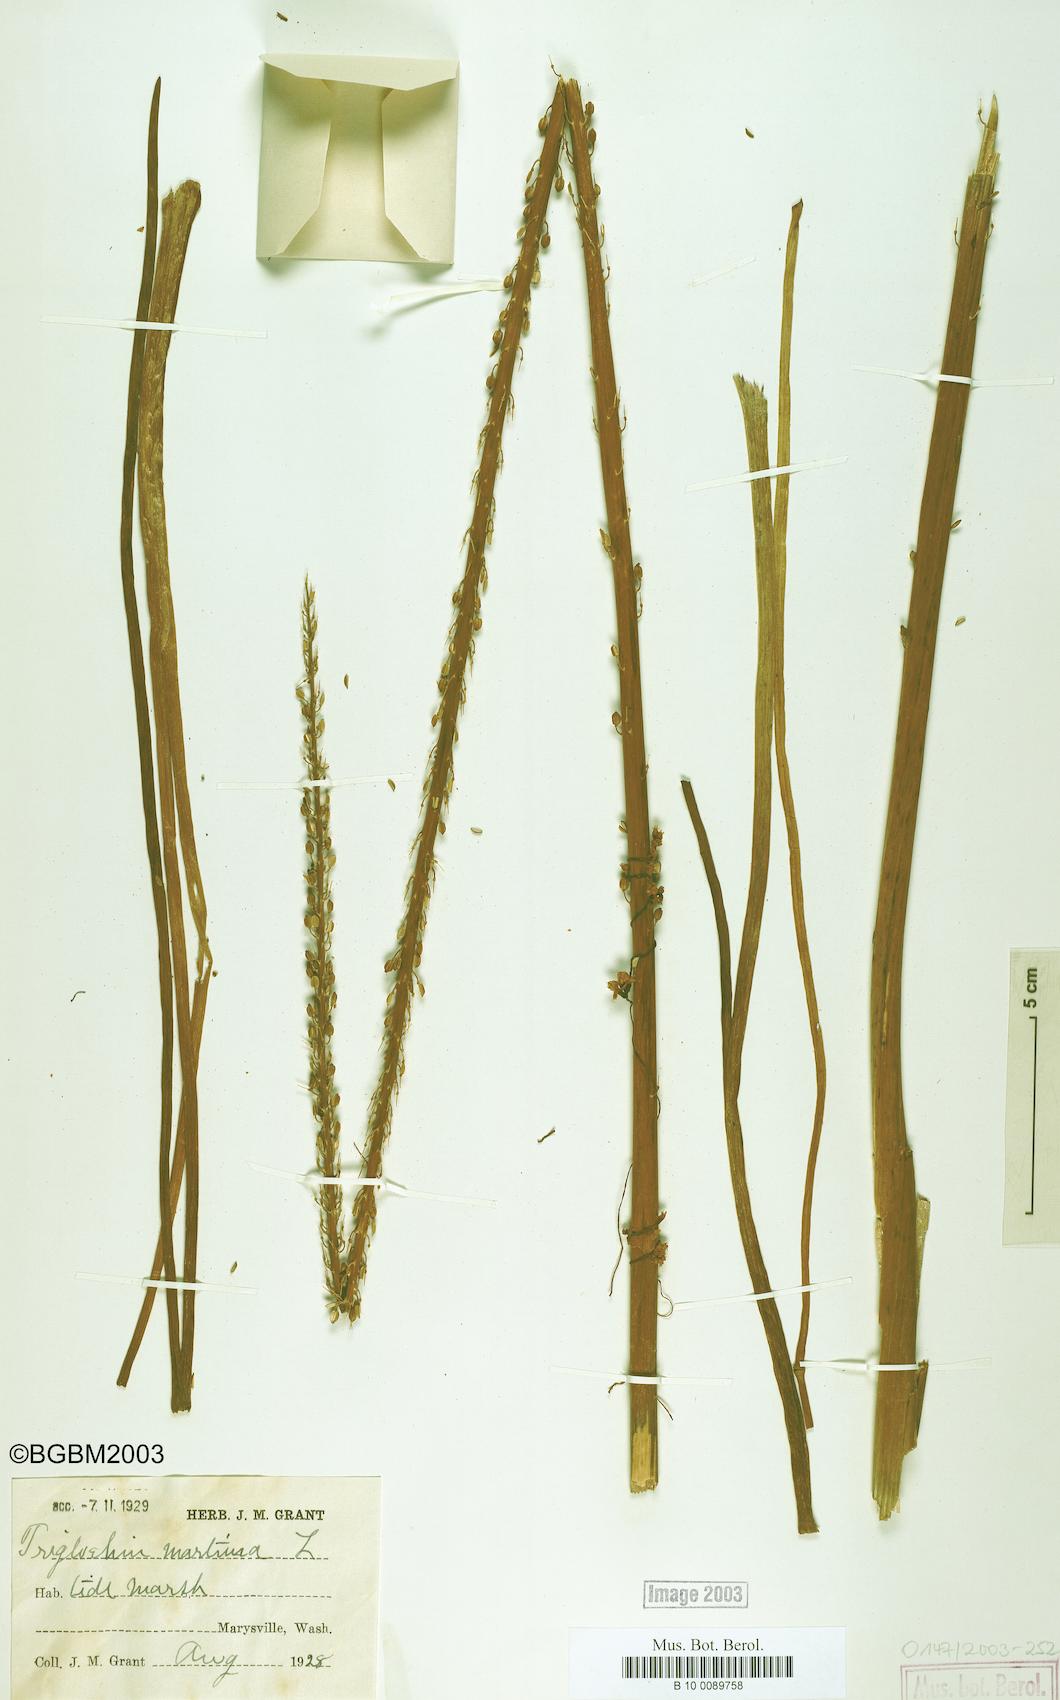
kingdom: Plantae
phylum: Tracheophyta
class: Liliopsida
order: Alismatales
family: Juncaginaceae
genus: Triglochin
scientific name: Triglochin maritima
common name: Sea arrowgrass
